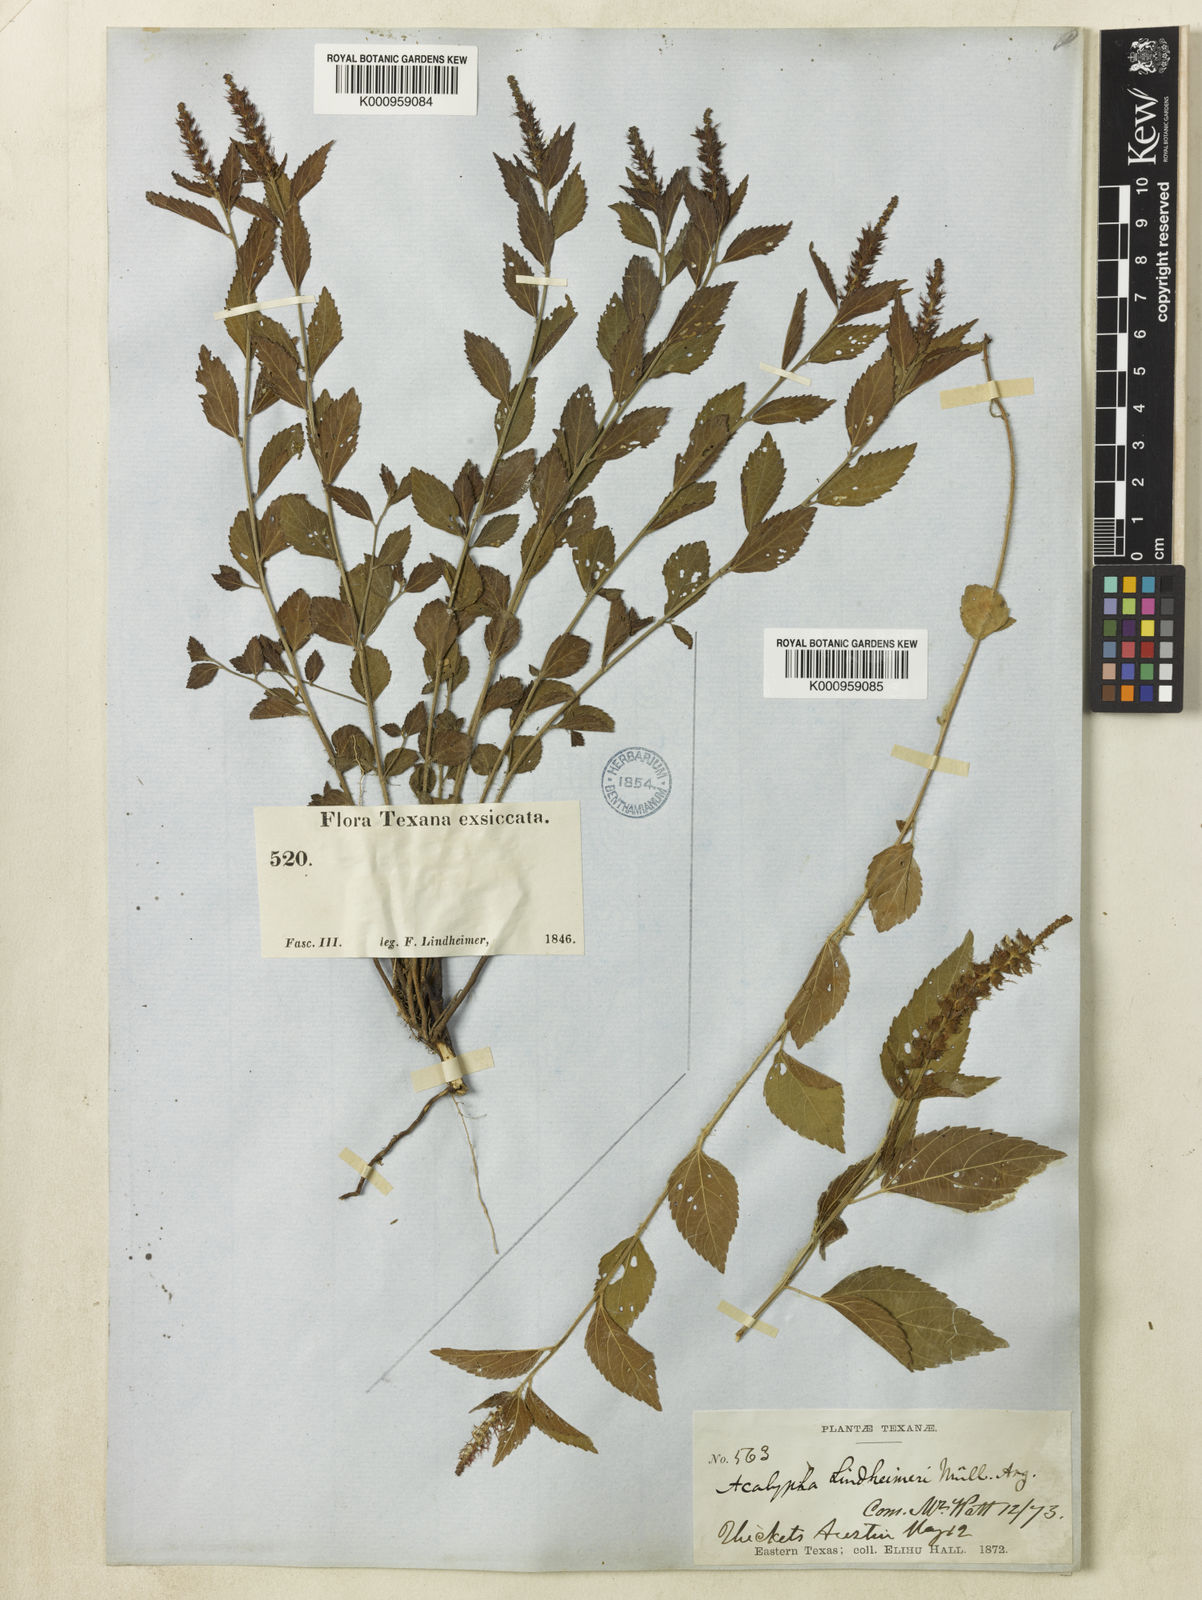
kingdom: Plantae
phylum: Tracheophyta
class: Magnoliopsida
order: Malpighiales
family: Euphorbiaceae
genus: Acalypha
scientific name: Acalypha phleoides
